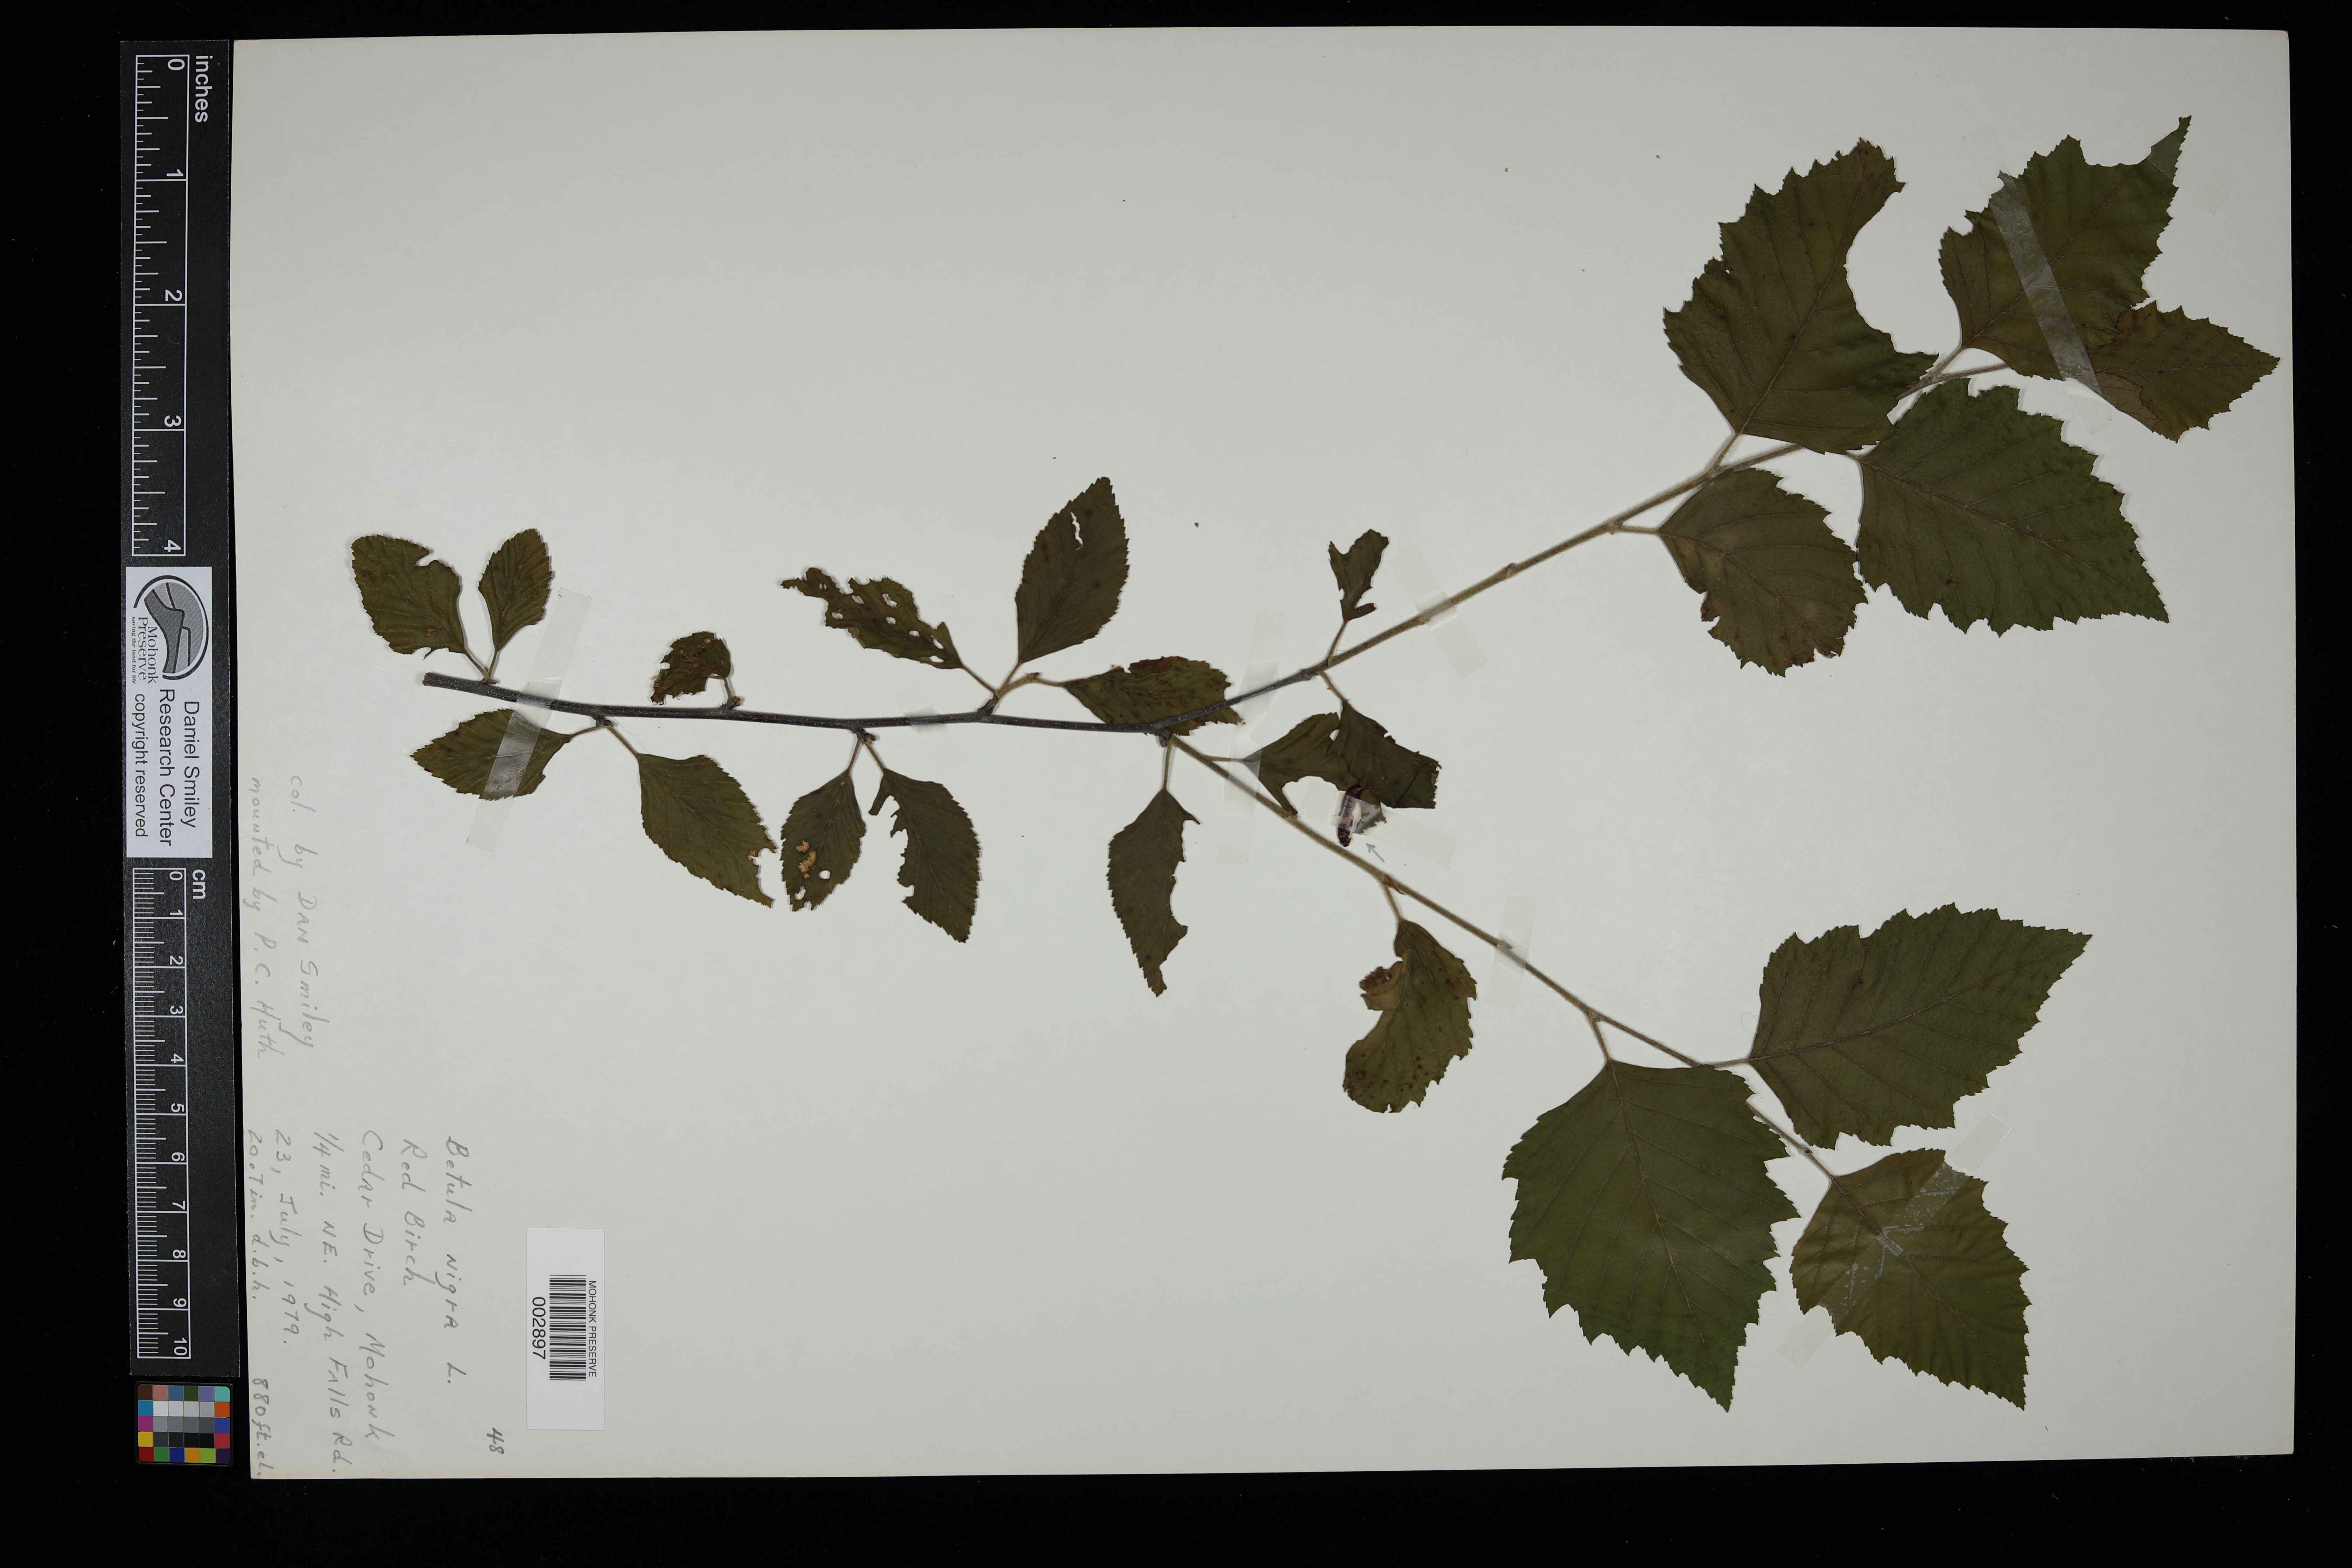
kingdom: Plantae
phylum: Tracheophyta
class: Magnoliopsida
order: Fagales
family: Betulaceae
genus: Betula
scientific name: Betula nigra
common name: Black birch
